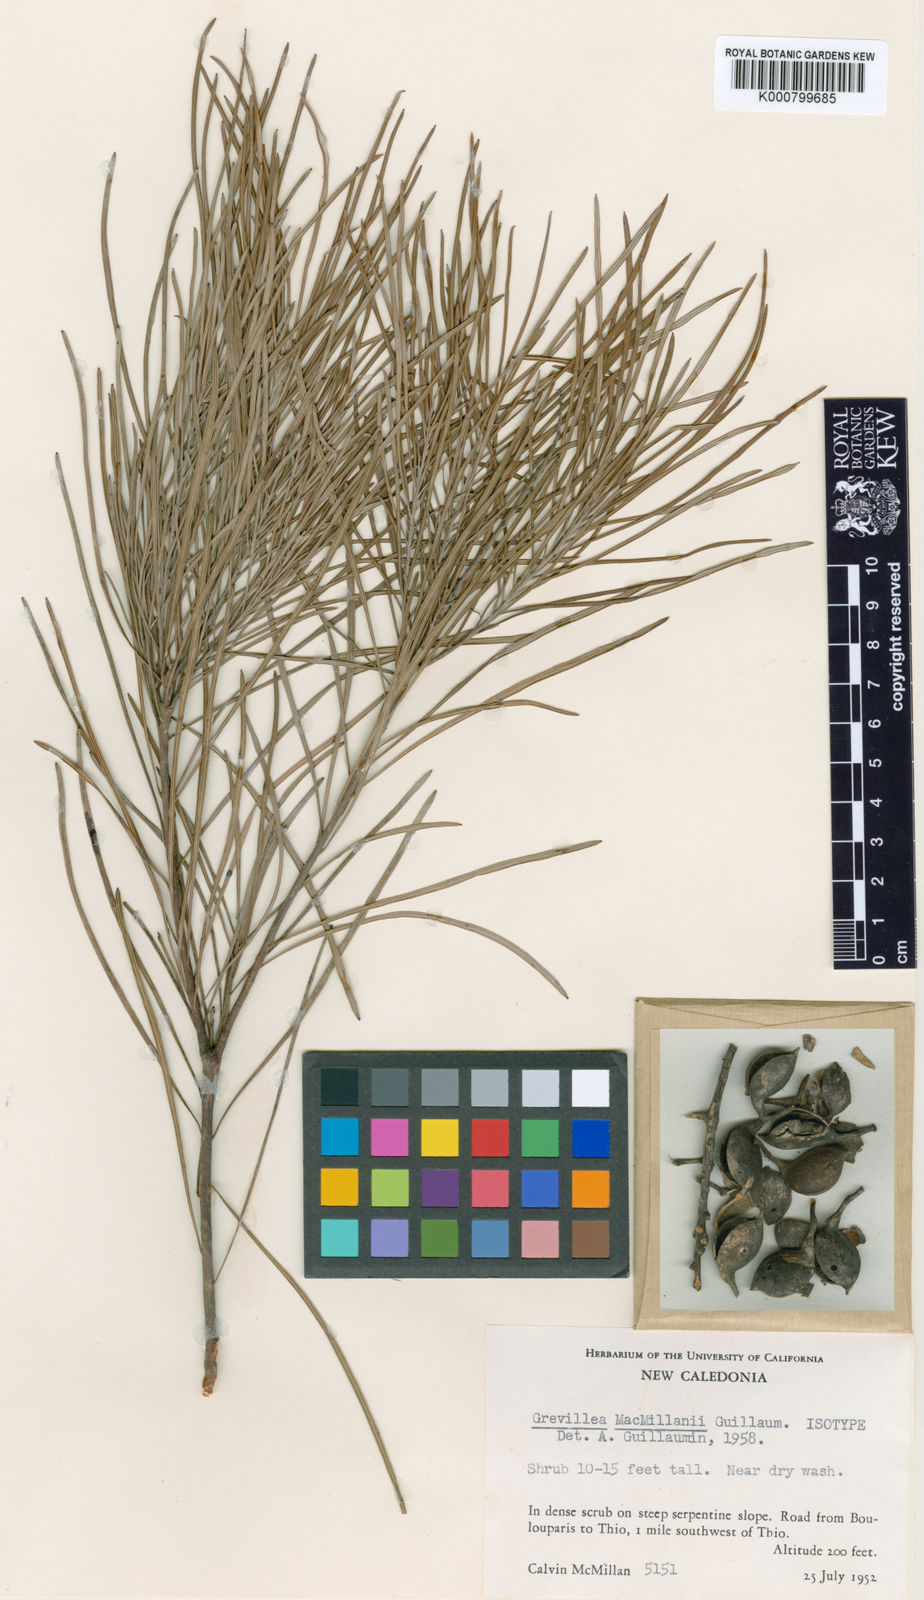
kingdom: Plantae
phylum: Tracheophyta
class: Magnoliopsida
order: Proteales
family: Proteaceae
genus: Grevillea
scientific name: Grevillea exul
